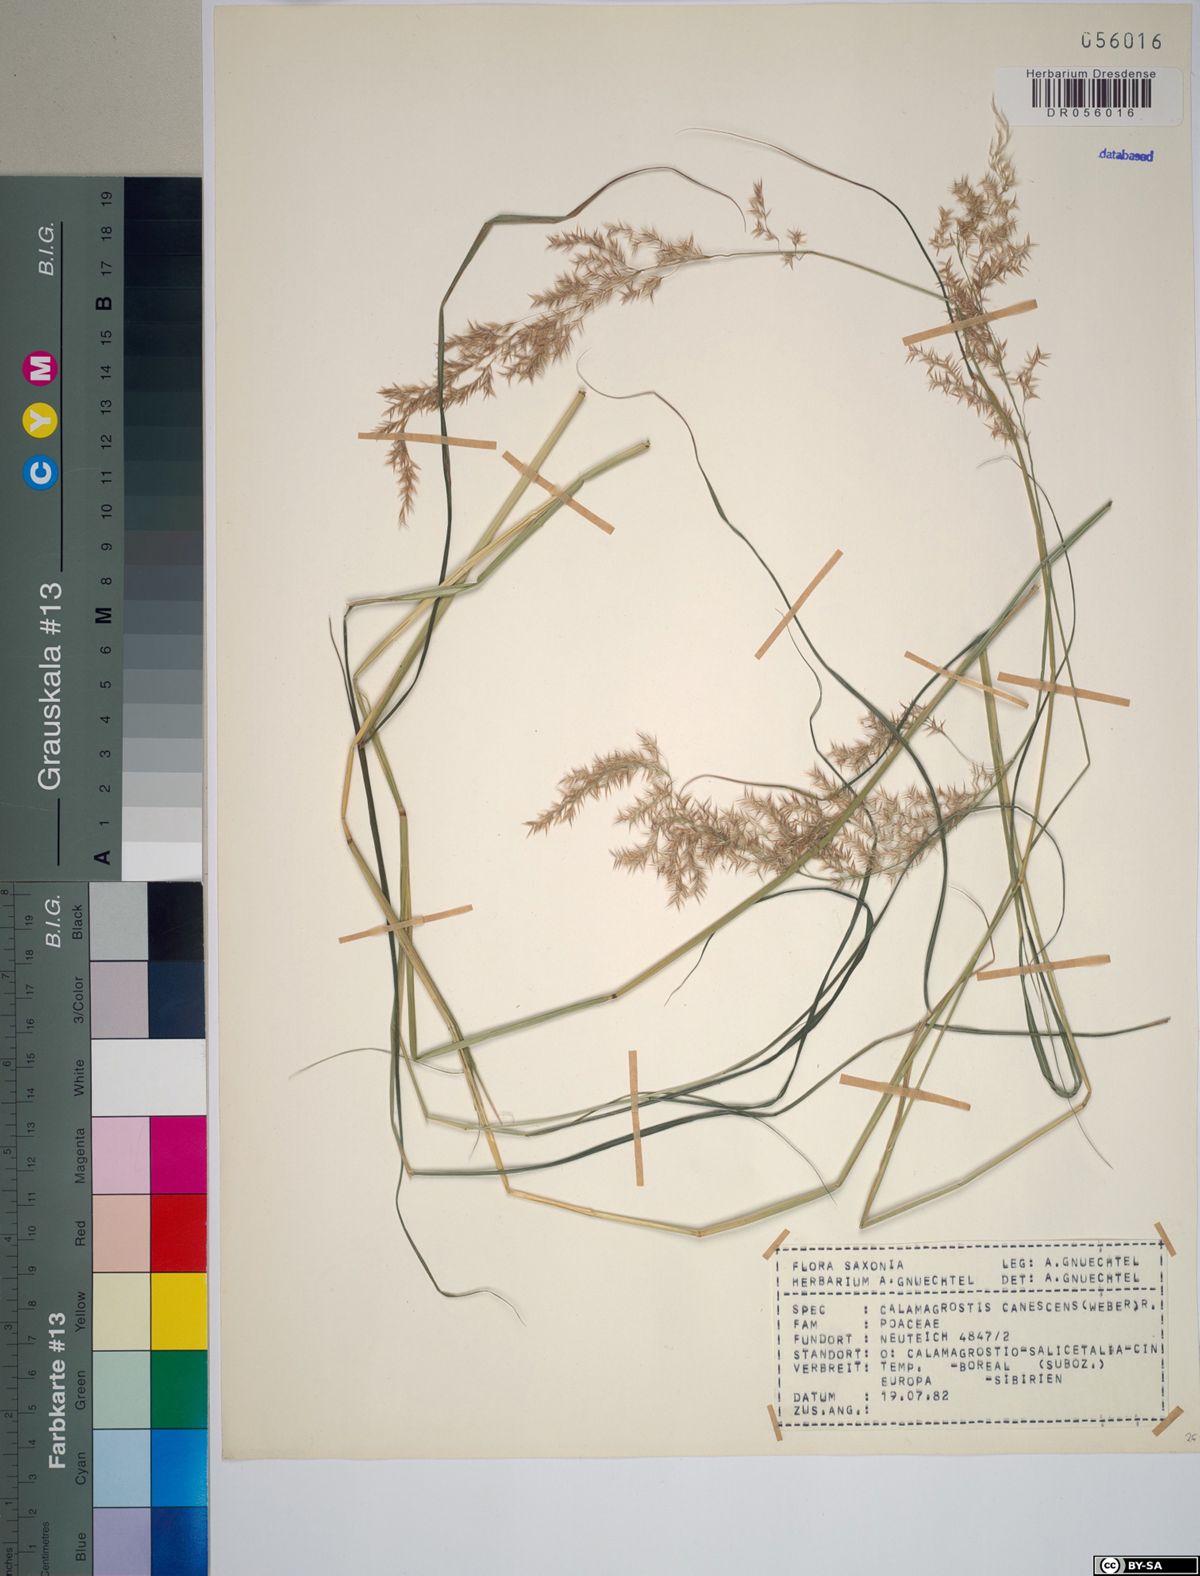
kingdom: Plantae
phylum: Tracheophyta
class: Liliopsida
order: Poales
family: Poaceae
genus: Calamagrostis
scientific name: Calamagrostis canescens
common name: Purple small-reed
